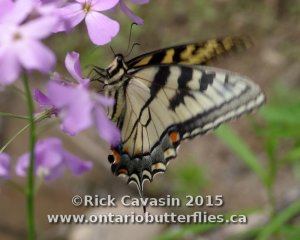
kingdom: Animalia
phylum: Arthropoda
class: Insecta
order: Lepidoptera
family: Papilionidae
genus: Pterourus
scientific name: Pterourus glaucus
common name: Eastern Tiger Swallowtail
